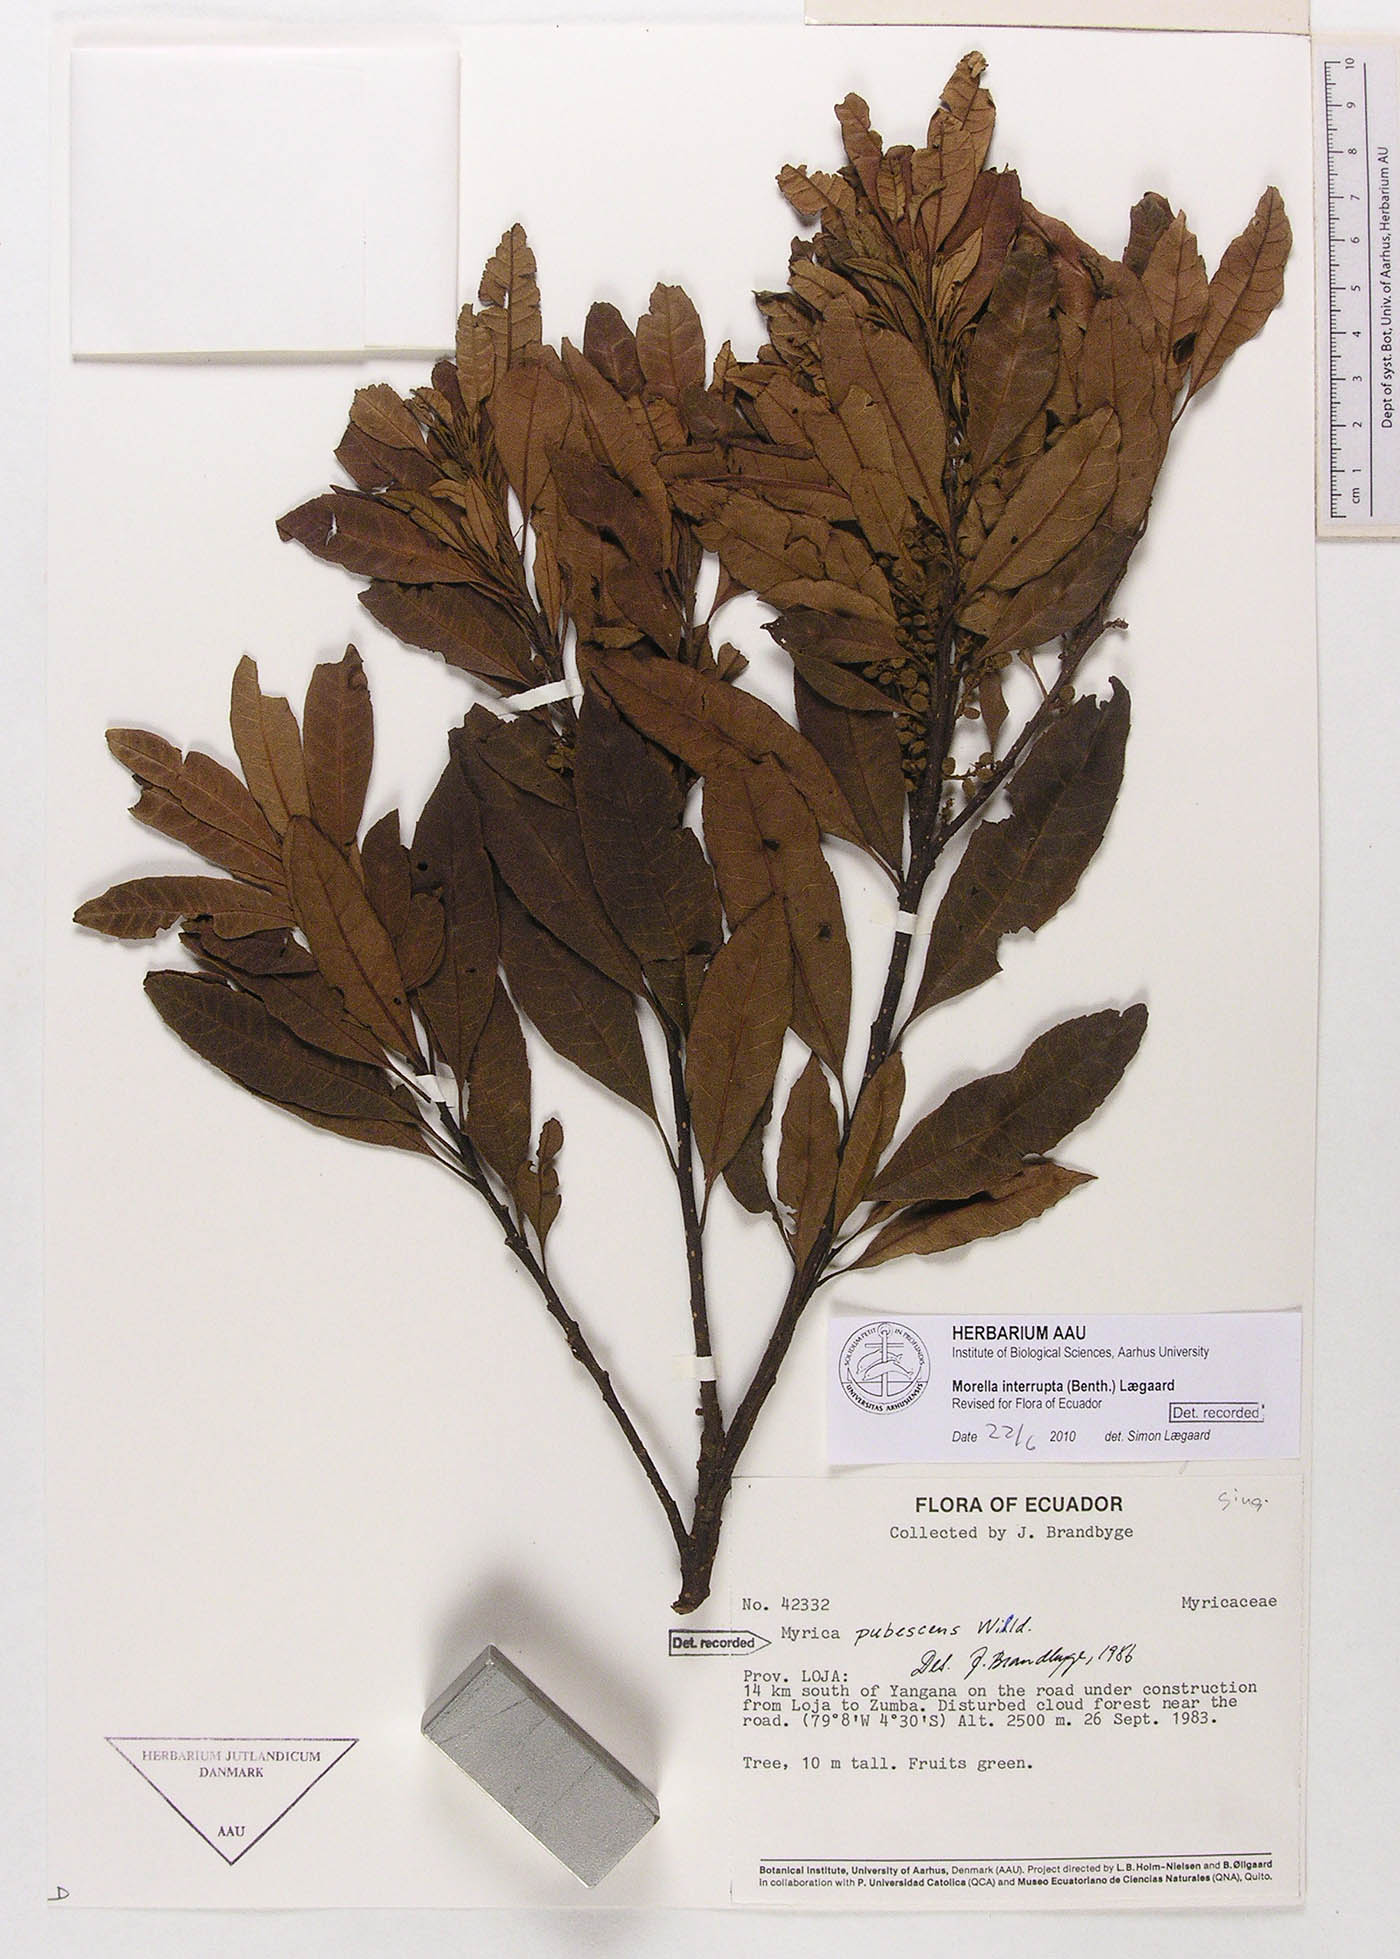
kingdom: Plantae
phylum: Tracheophyta
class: Magnoliopsida
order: Fagales
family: Myricaceae
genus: Morella
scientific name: Morella interrupta
